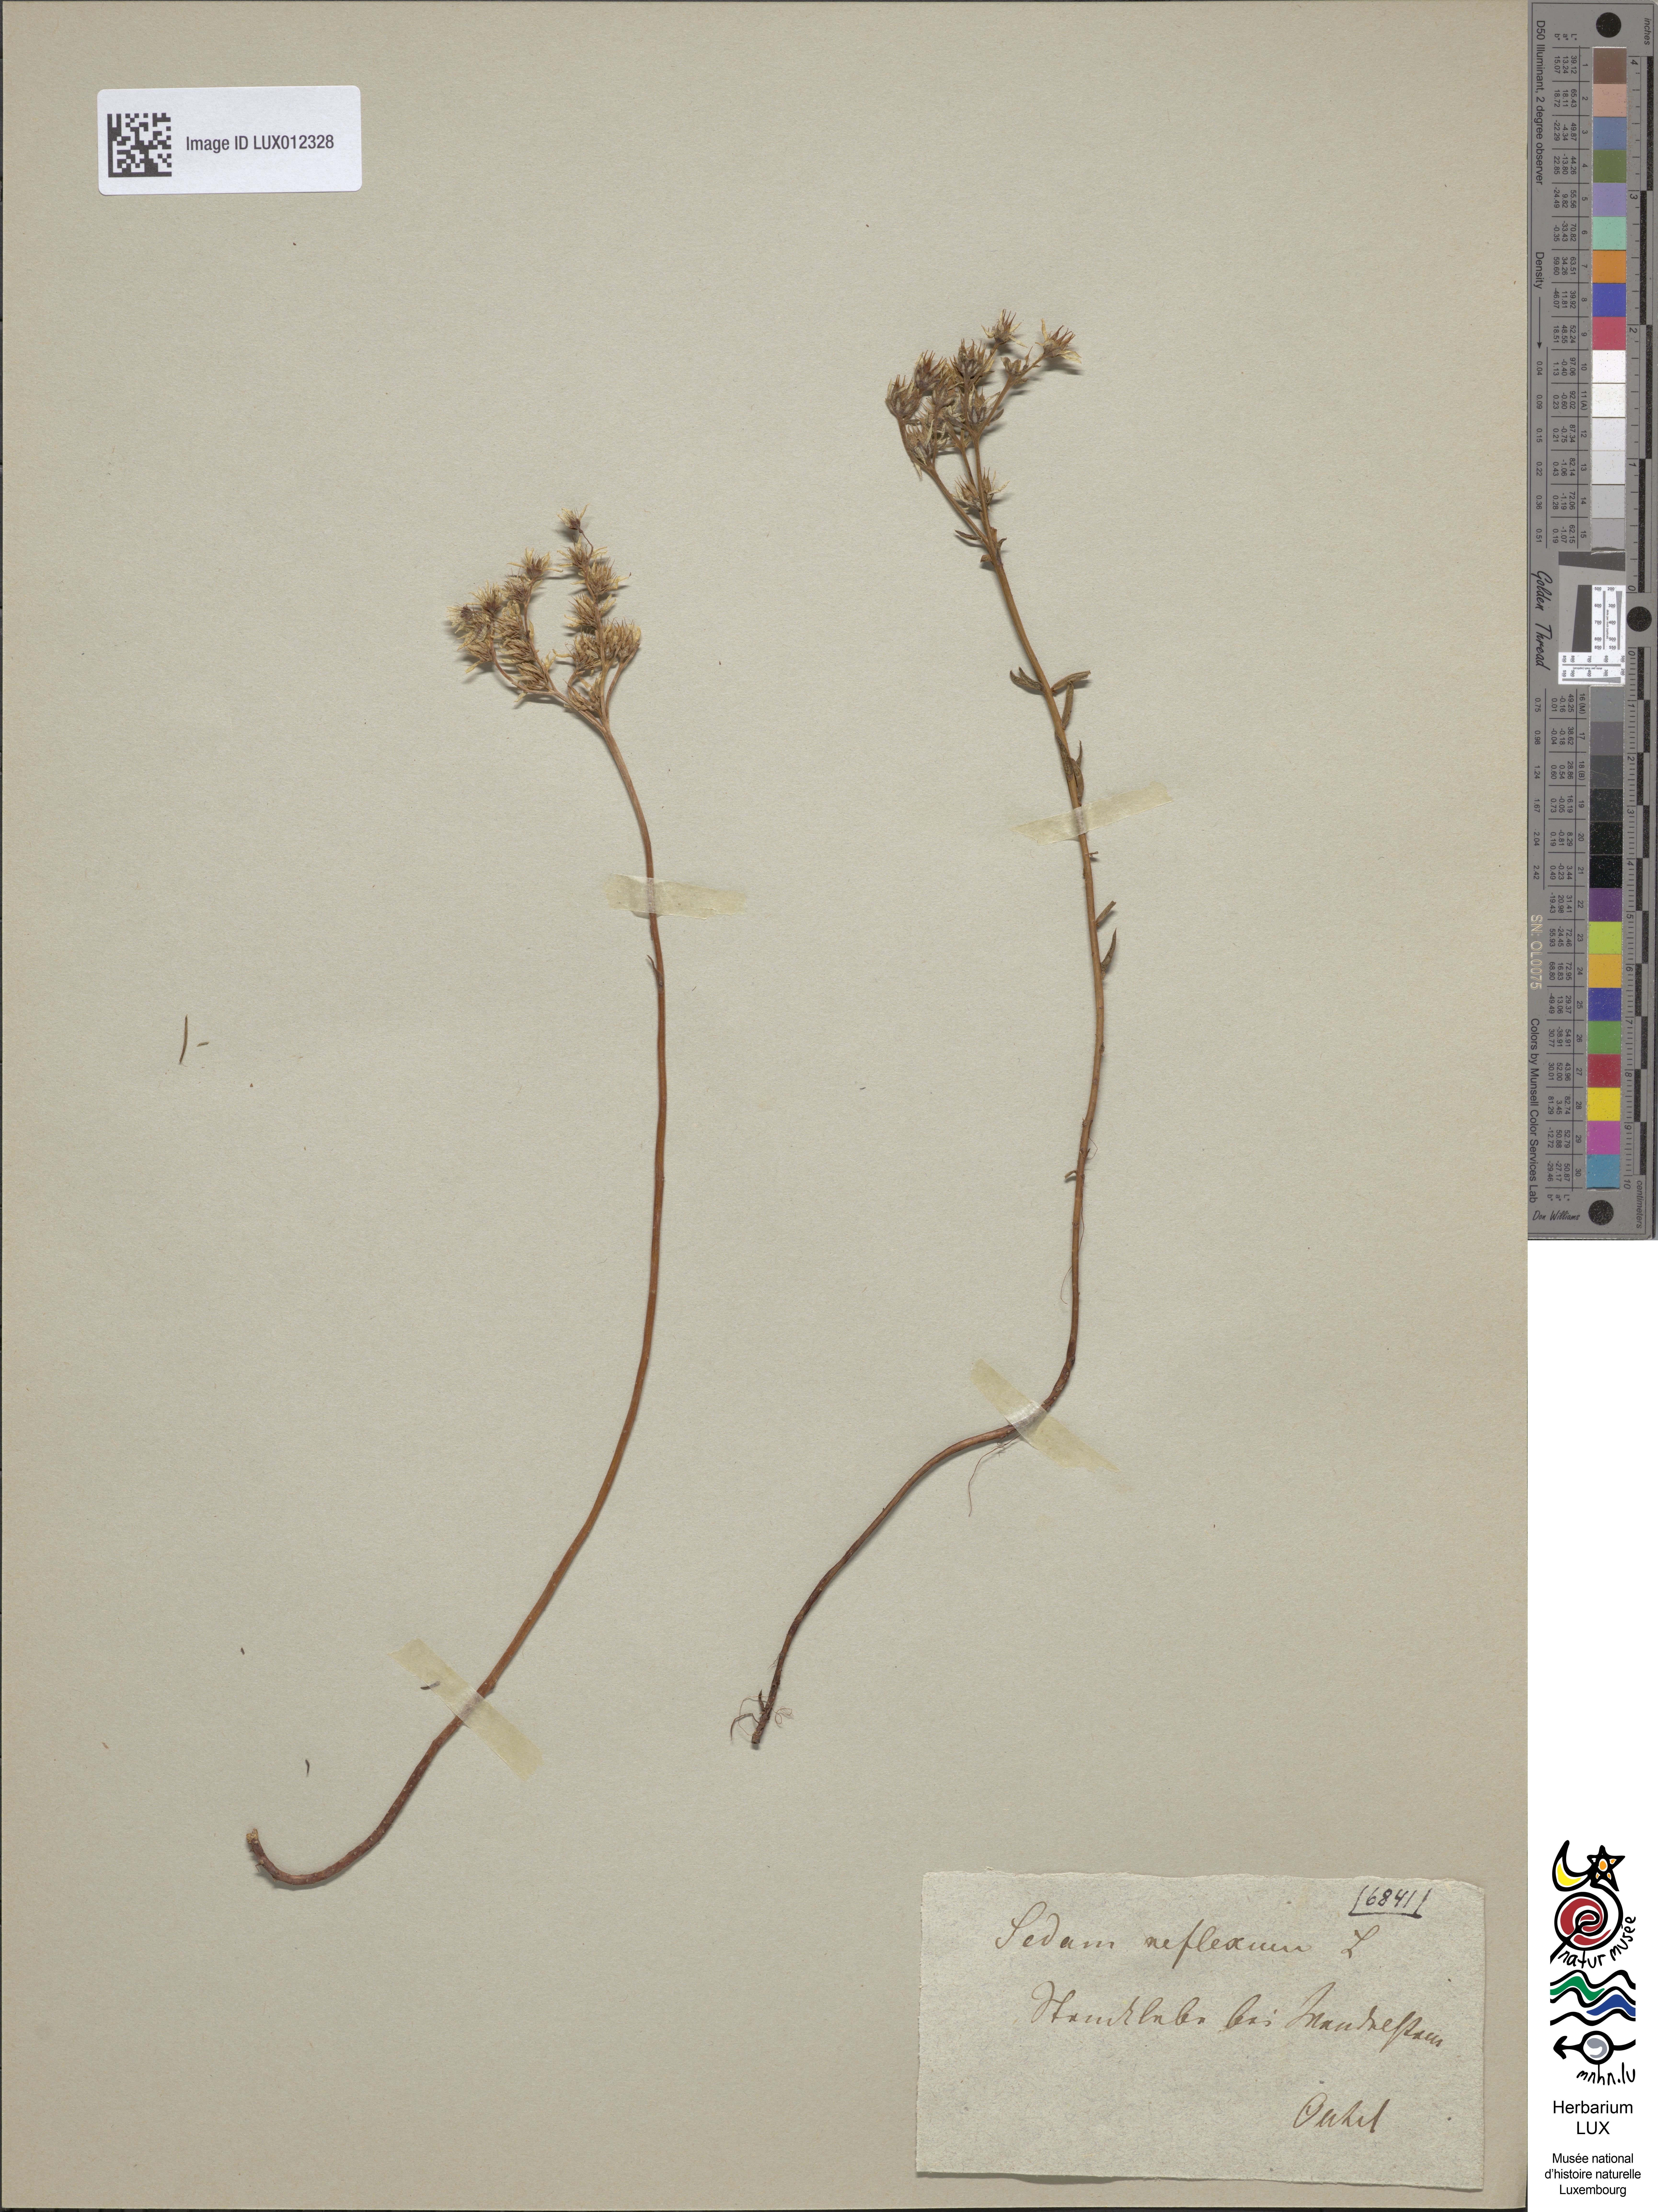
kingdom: Plantae
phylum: Tracheophyta
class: Magnoliopsida
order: Saxifragales
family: Crassulaceae
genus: Petrosedum
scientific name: Petrosedum rupestre
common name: Jenny's stonecrop
